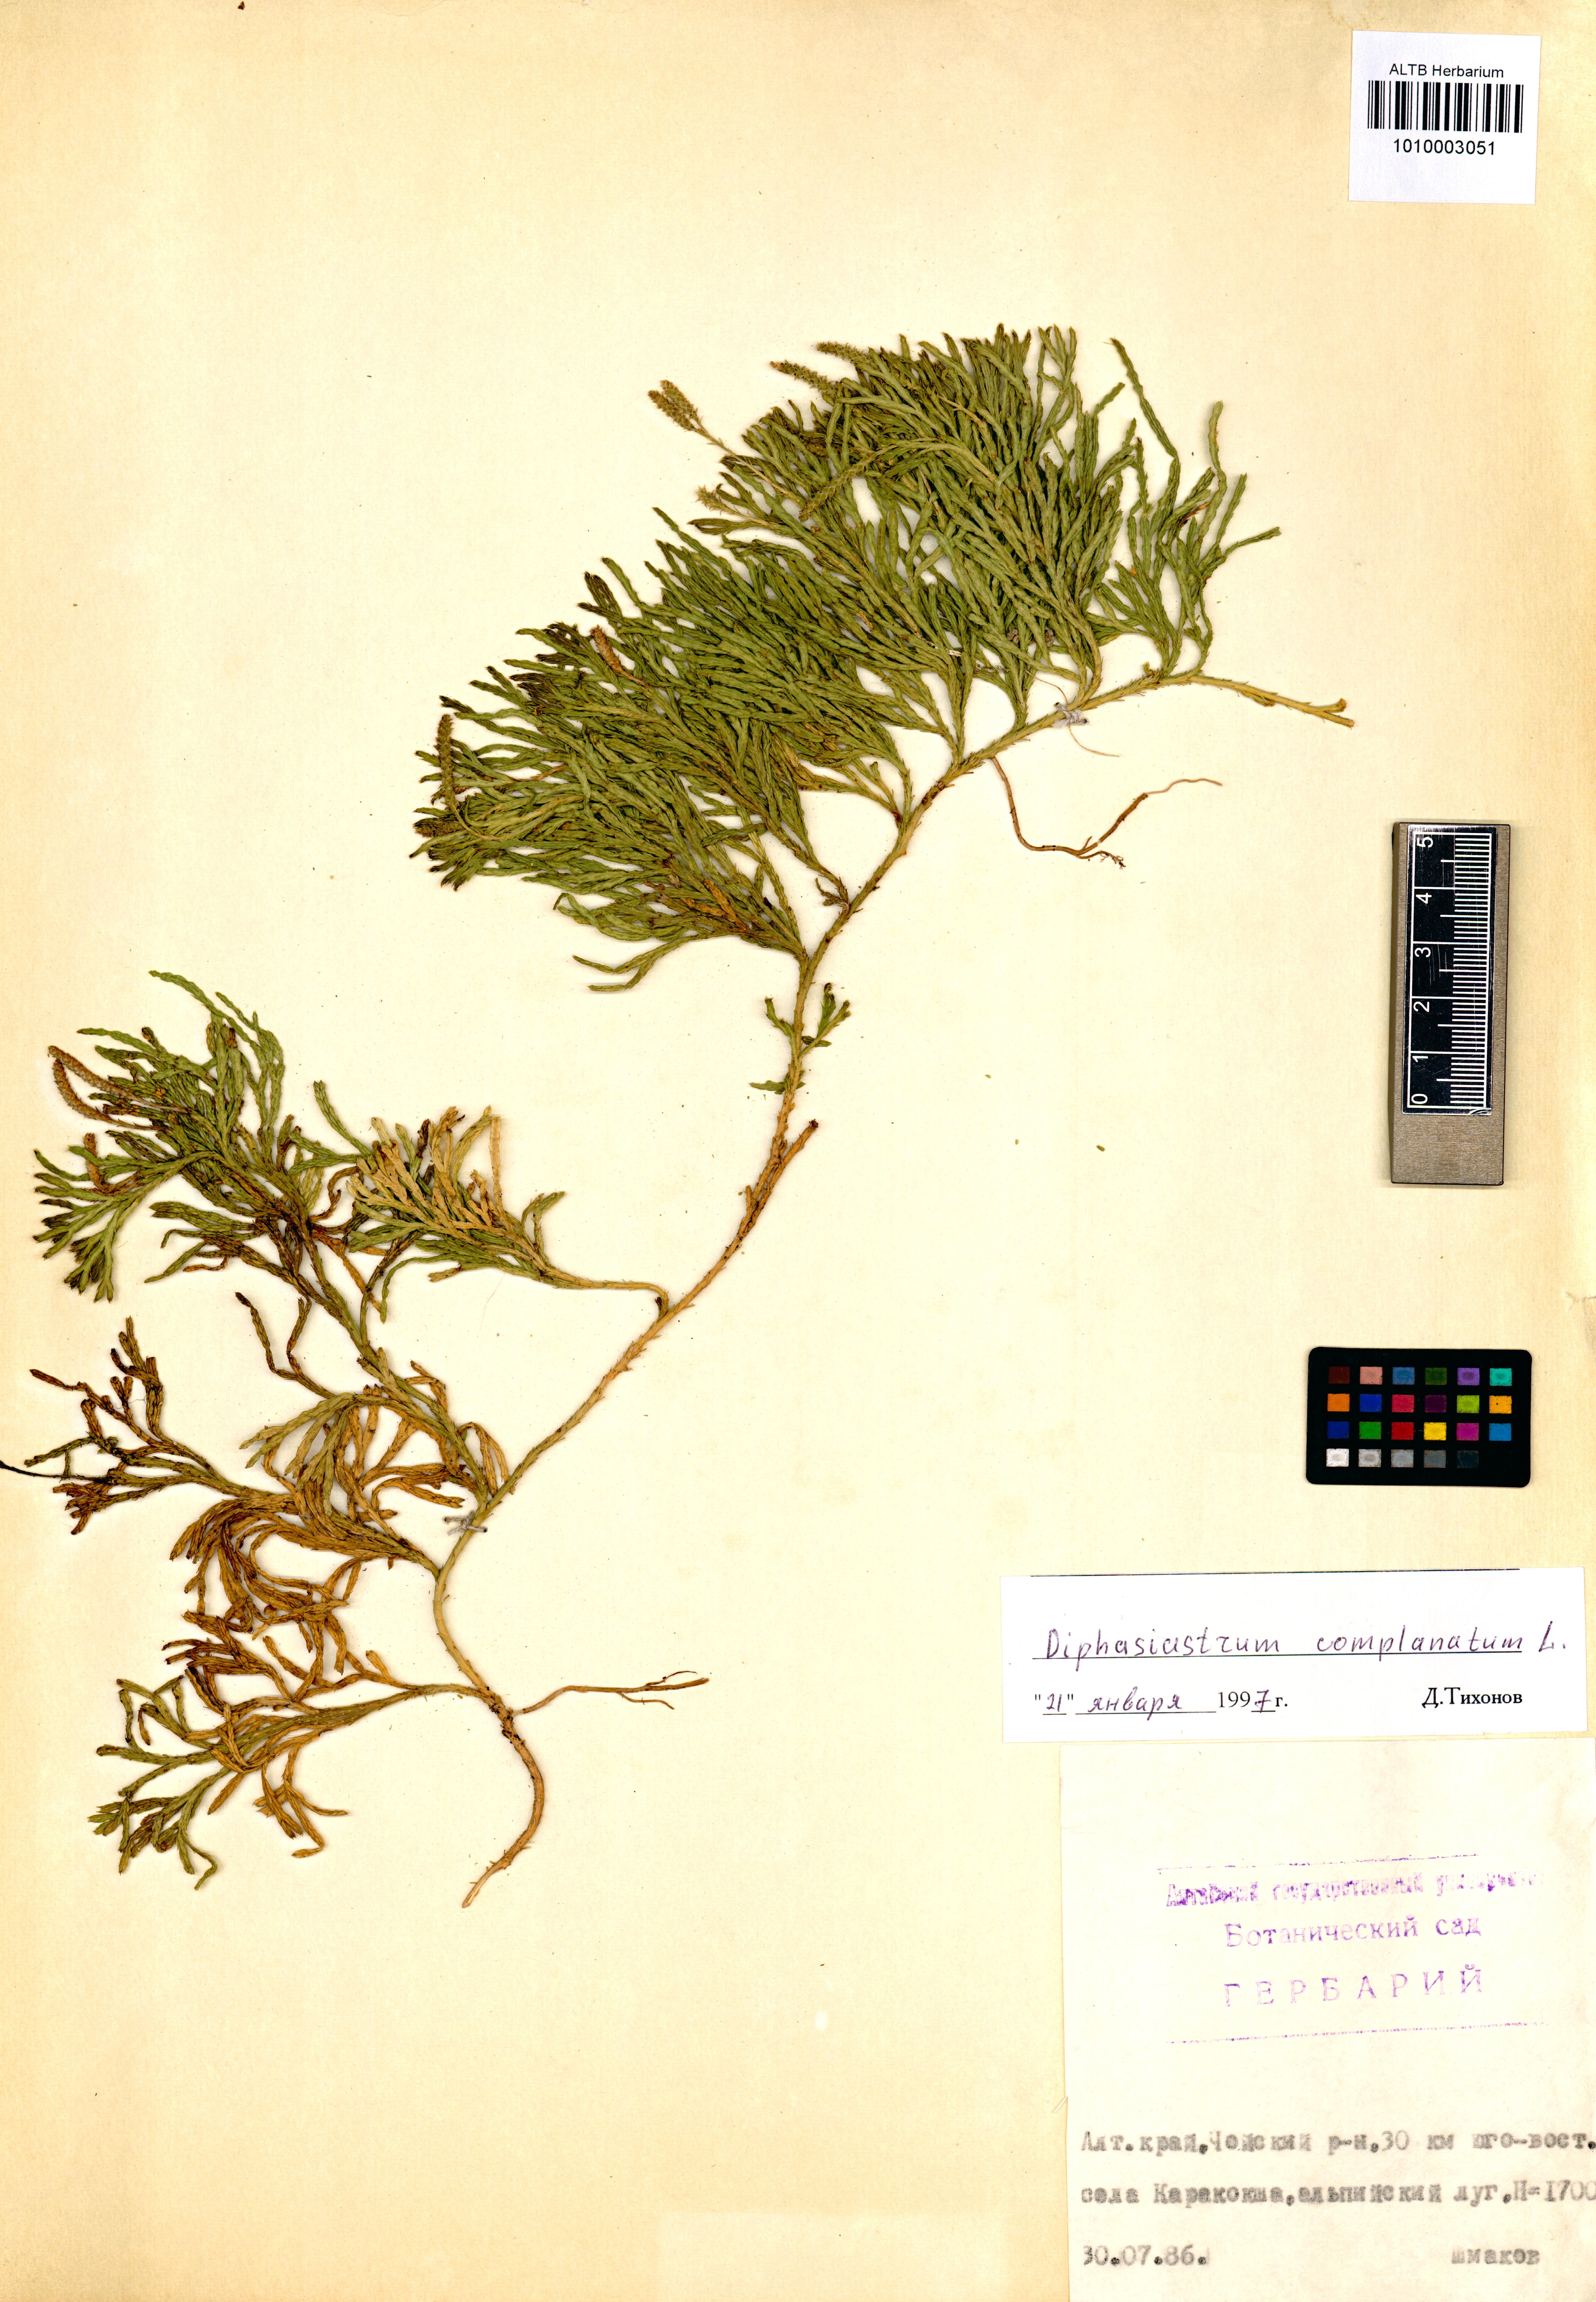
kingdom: Plantae
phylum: Tracheophyta
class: Lycopodiopsida
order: Lycopodiales
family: Lycopodiaceae
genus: Diphasiastrum
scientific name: Diphasiastrum complanatum
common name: Northern running-pine
